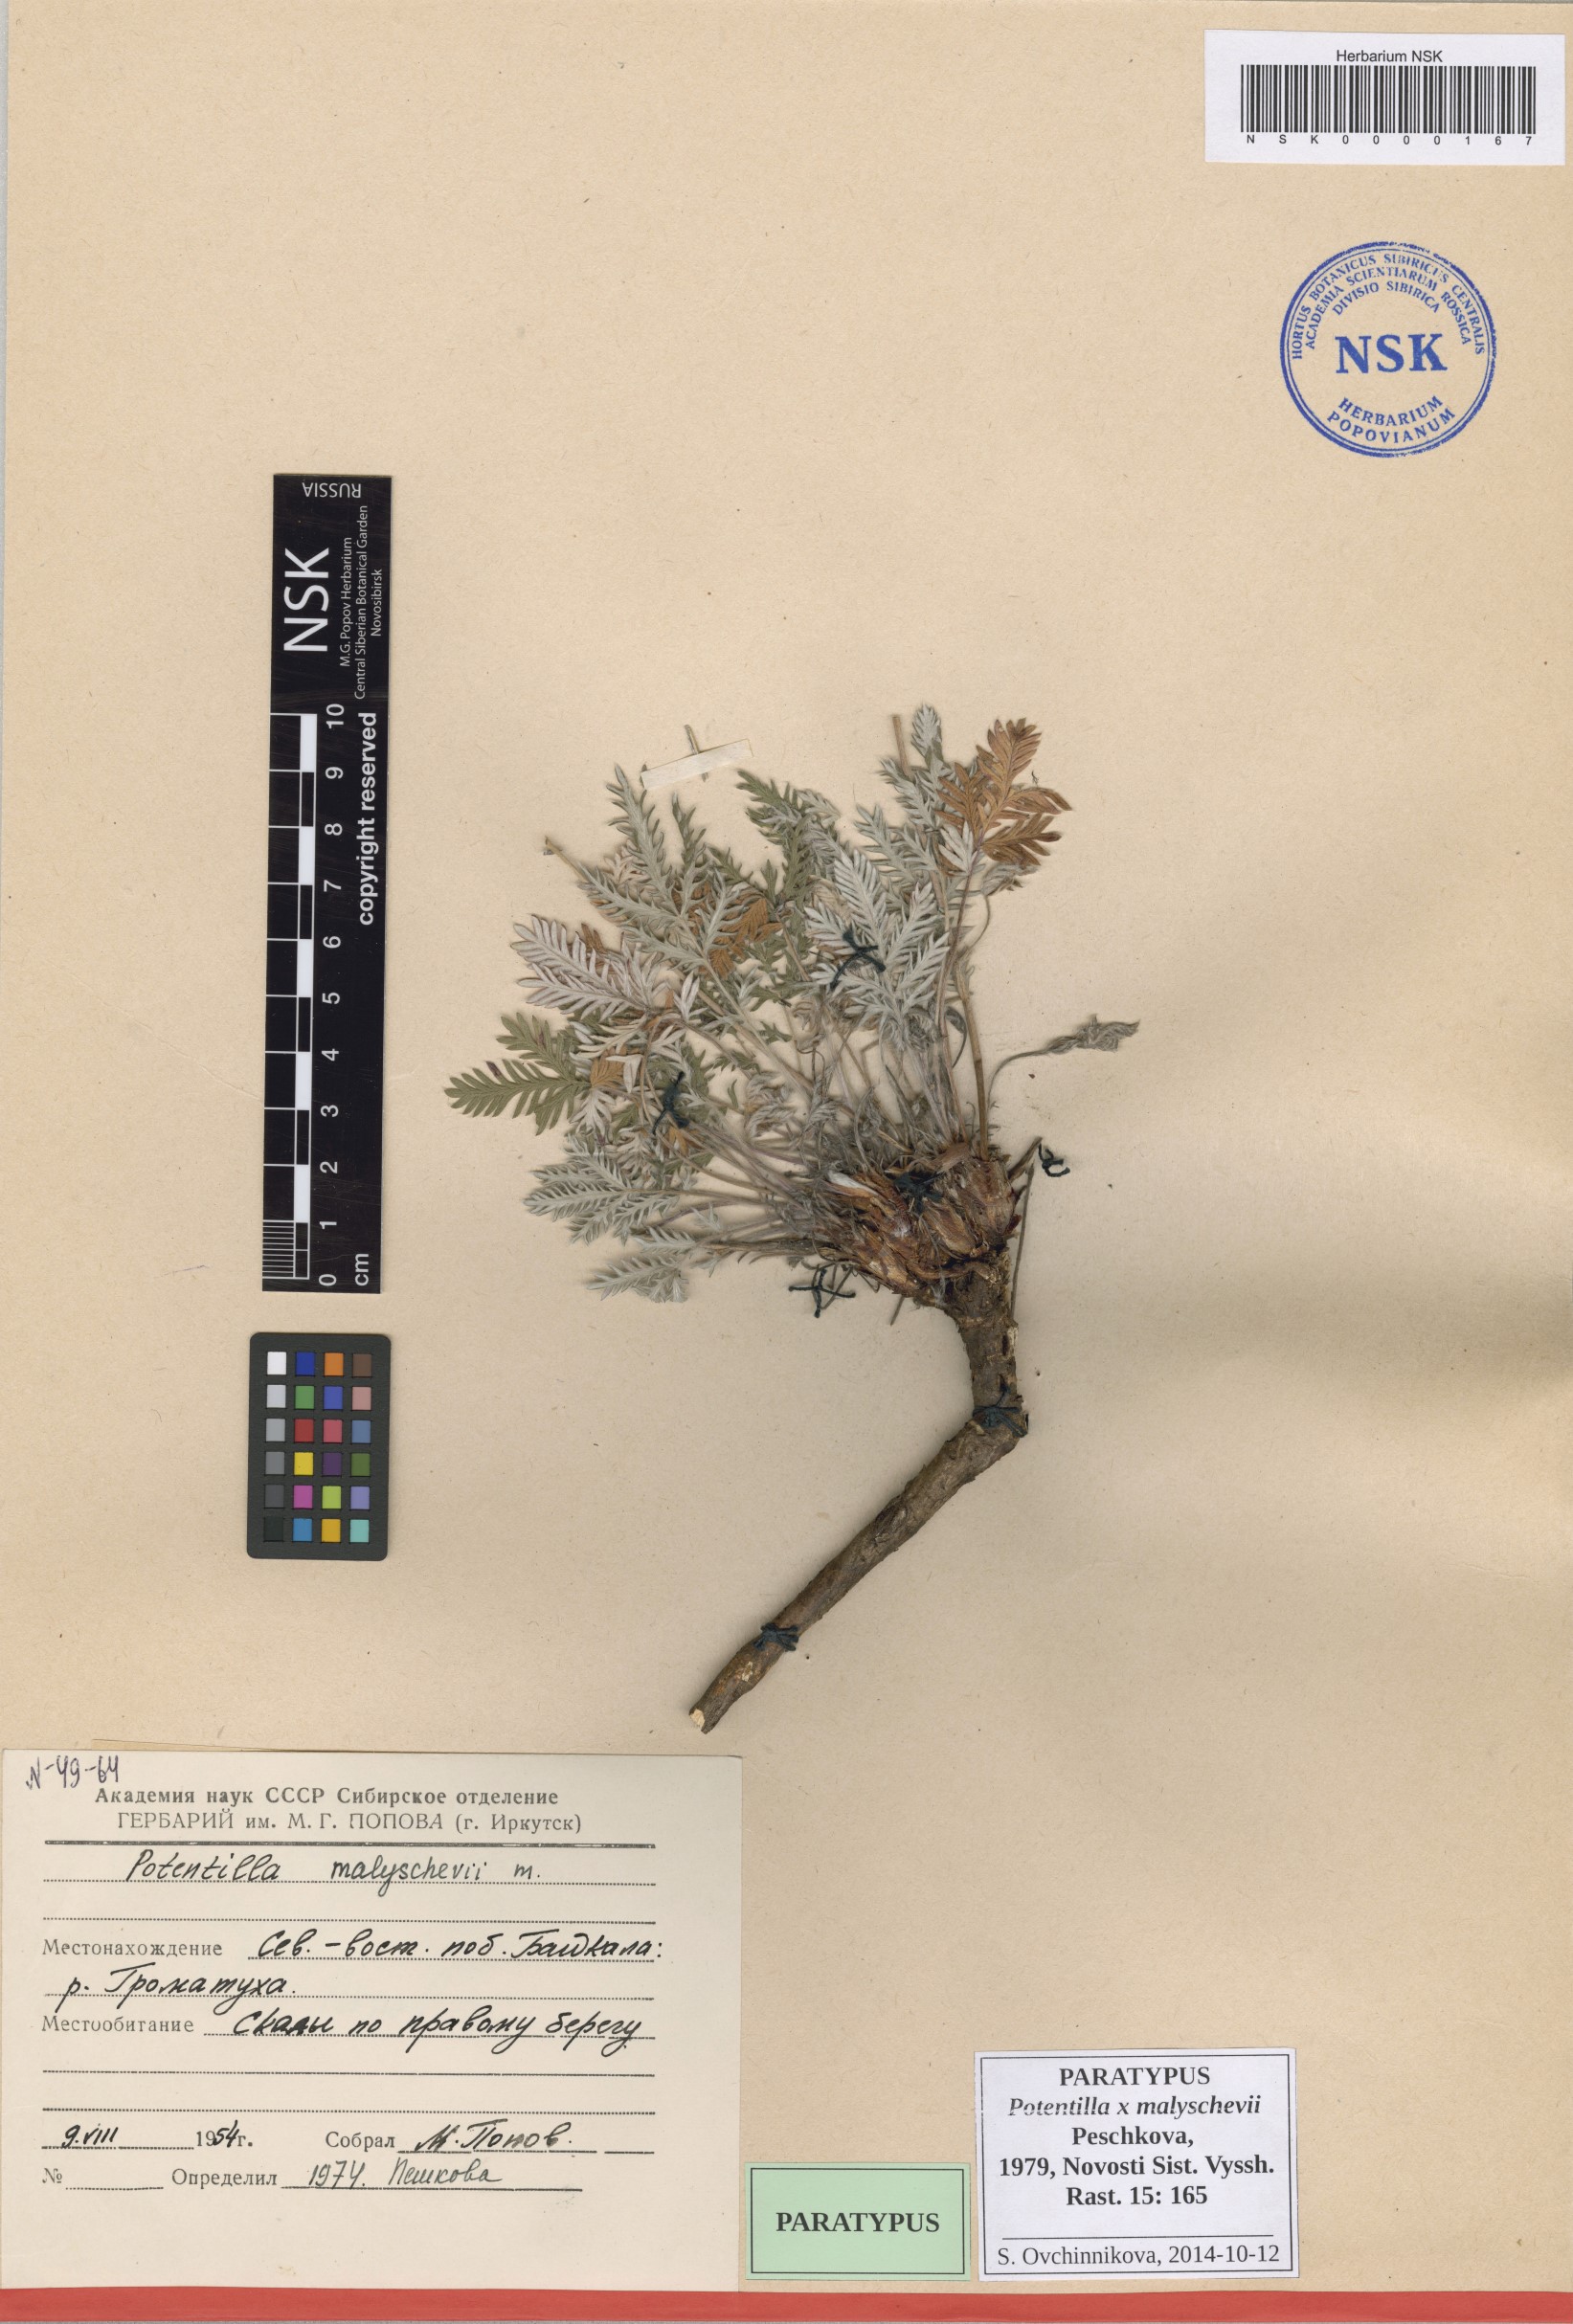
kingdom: Plantae
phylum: Tracheophyta
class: Magnoliopsida
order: Rosales
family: Rosaceae
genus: Potentilla
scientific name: Potentilla chionea
